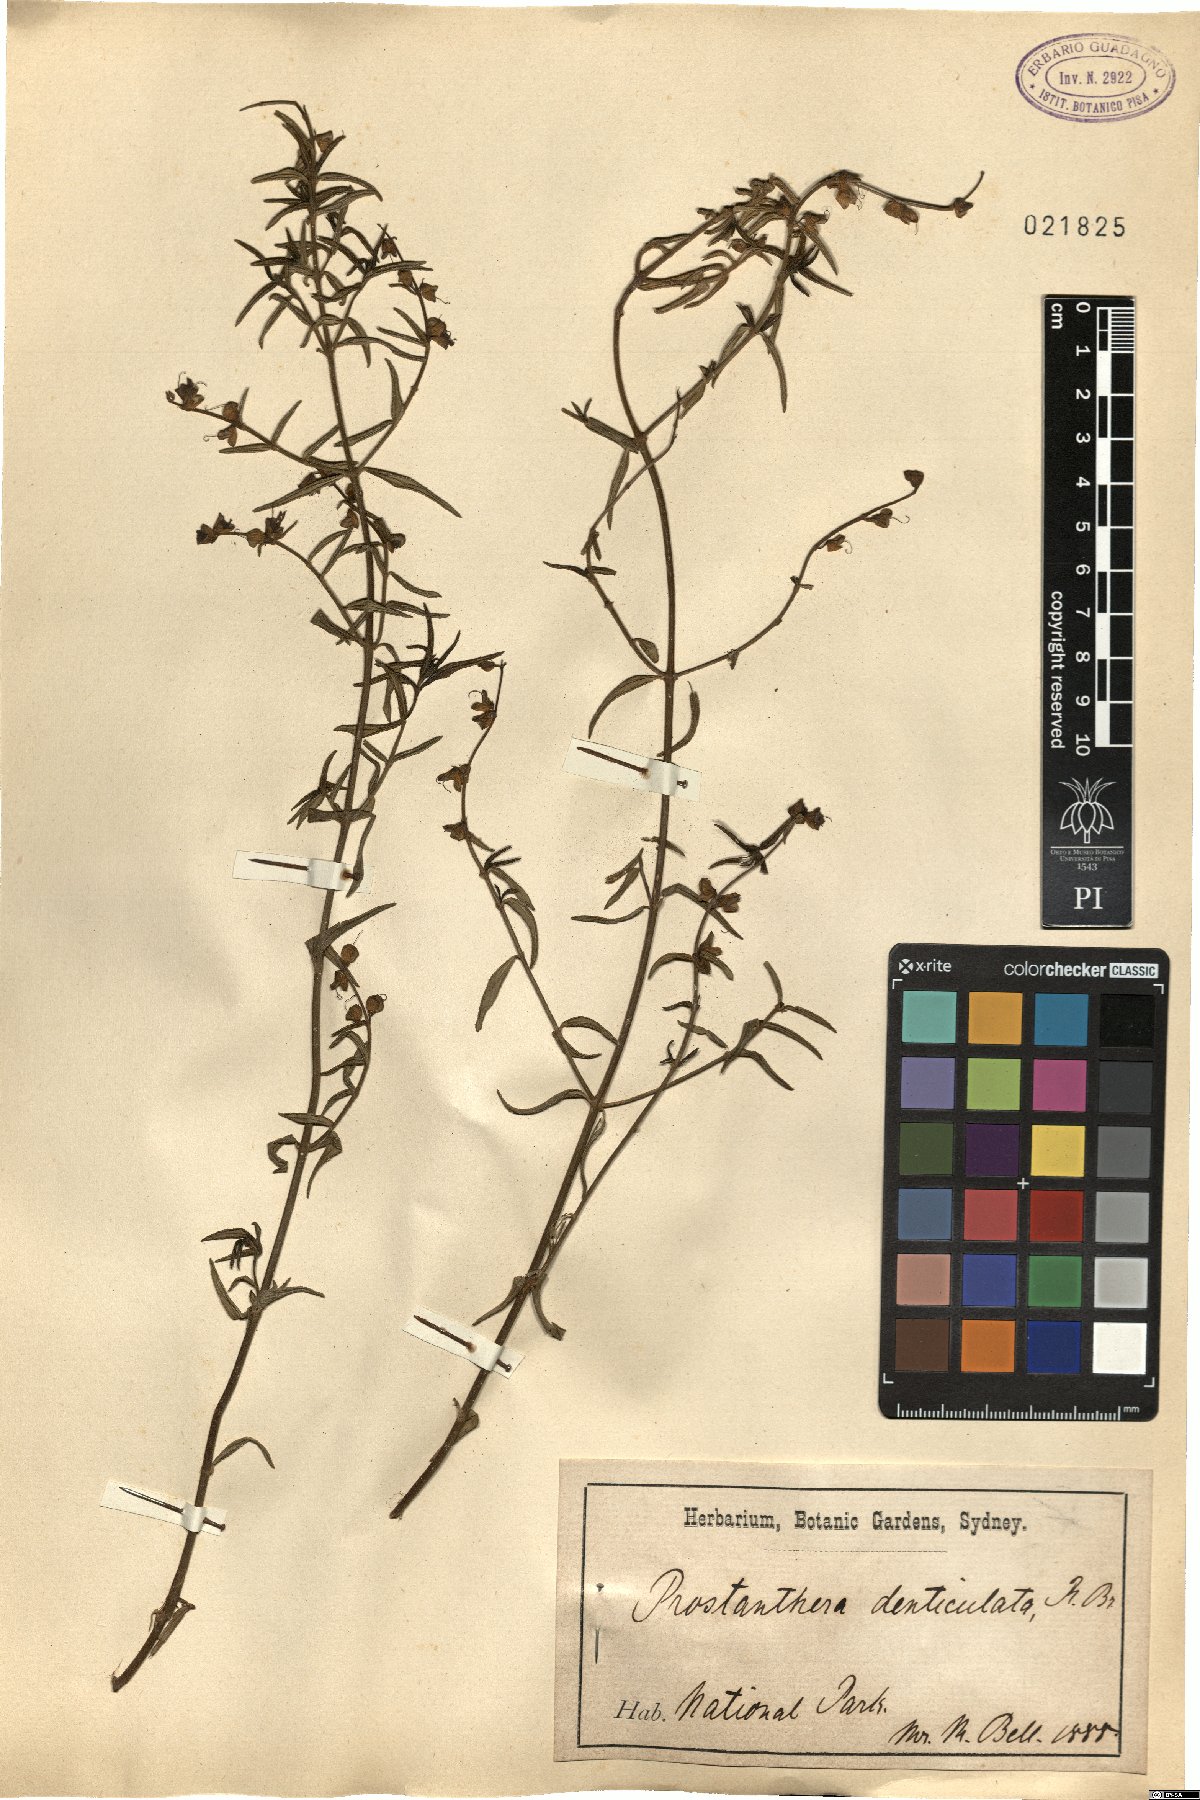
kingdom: Plantae
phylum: Tracheophyta
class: Magnoliopsida
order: Lamiales
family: Lamiaceae
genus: Prostanthera
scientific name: Prostanthera denticulata
